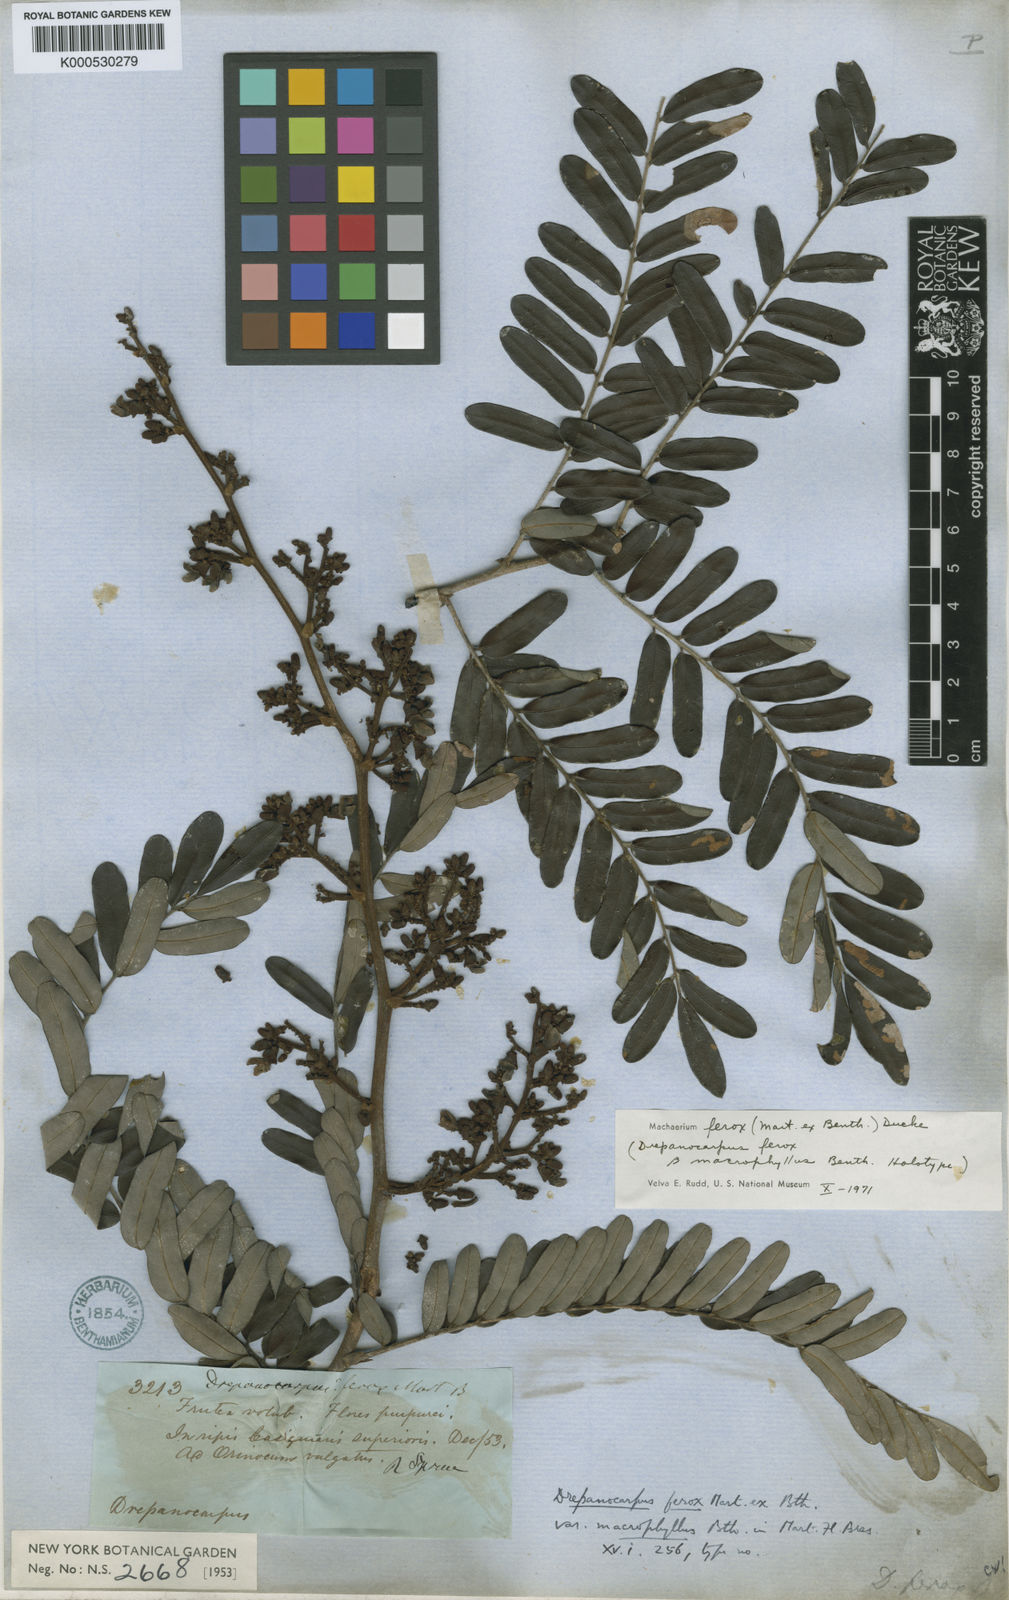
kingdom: Plantae
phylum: Tracheophyta
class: Magnoliopsida
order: Fabales
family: Fabaceae
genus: Machaerium
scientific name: Machaerium ferox
